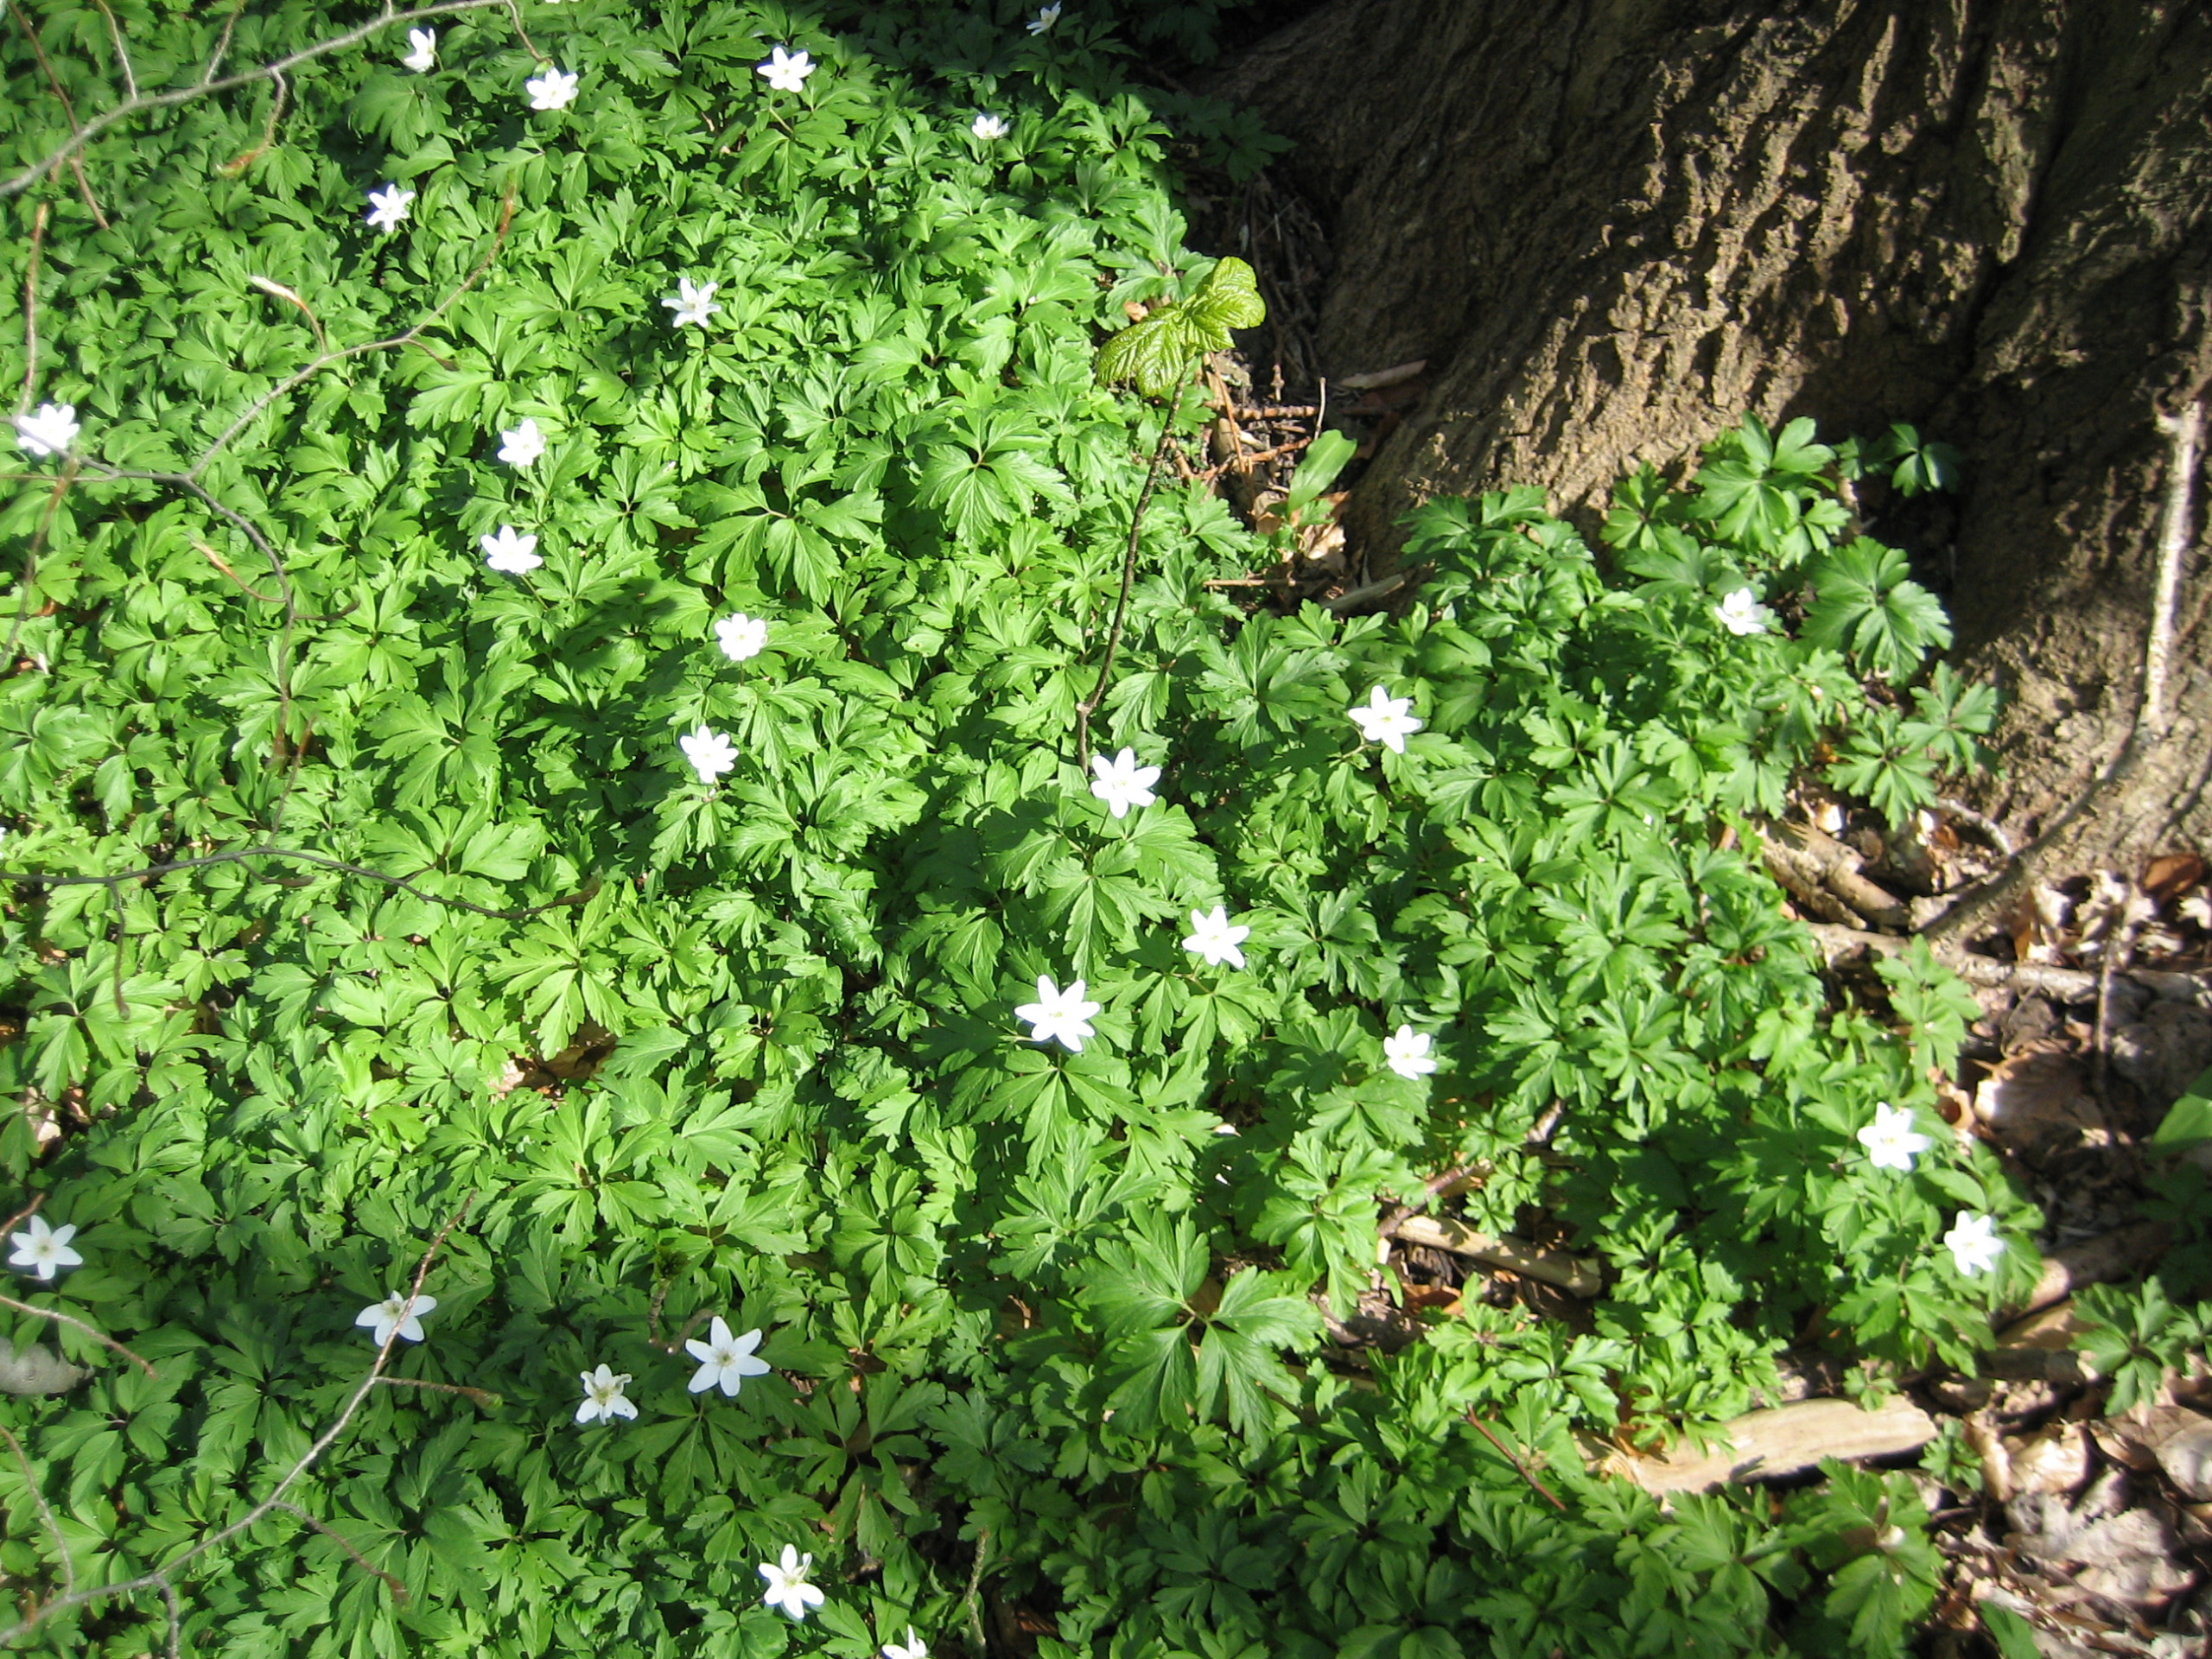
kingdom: Plantae
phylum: Tracheophyta
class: Magnoliopsida
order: Ranunculales
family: Ranunculaceae
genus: Anemone
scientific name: Anemone nemorosa
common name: Hvid anemone
